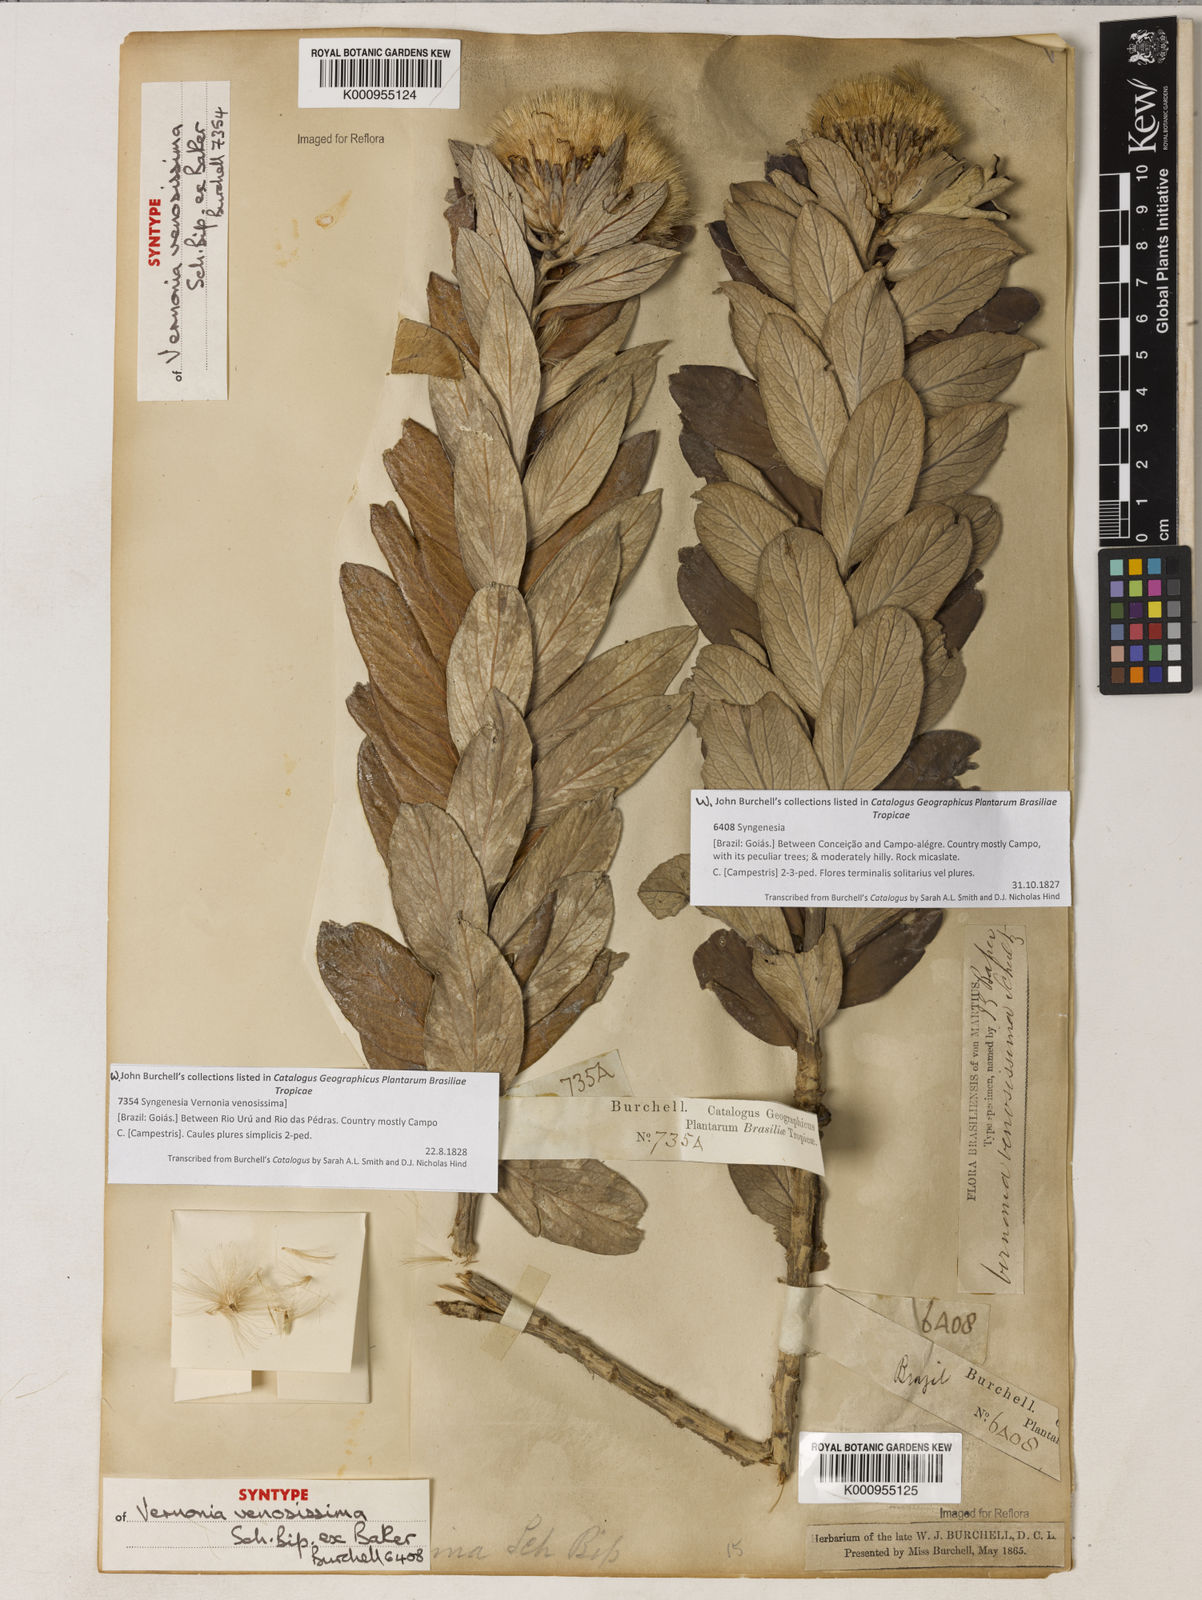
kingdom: Plantae
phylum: Tracheophyta
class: Magnoliopsida
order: Asterales
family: Asteraceae
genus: Lessingianthus
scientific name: Lessingianthus venosissimus
